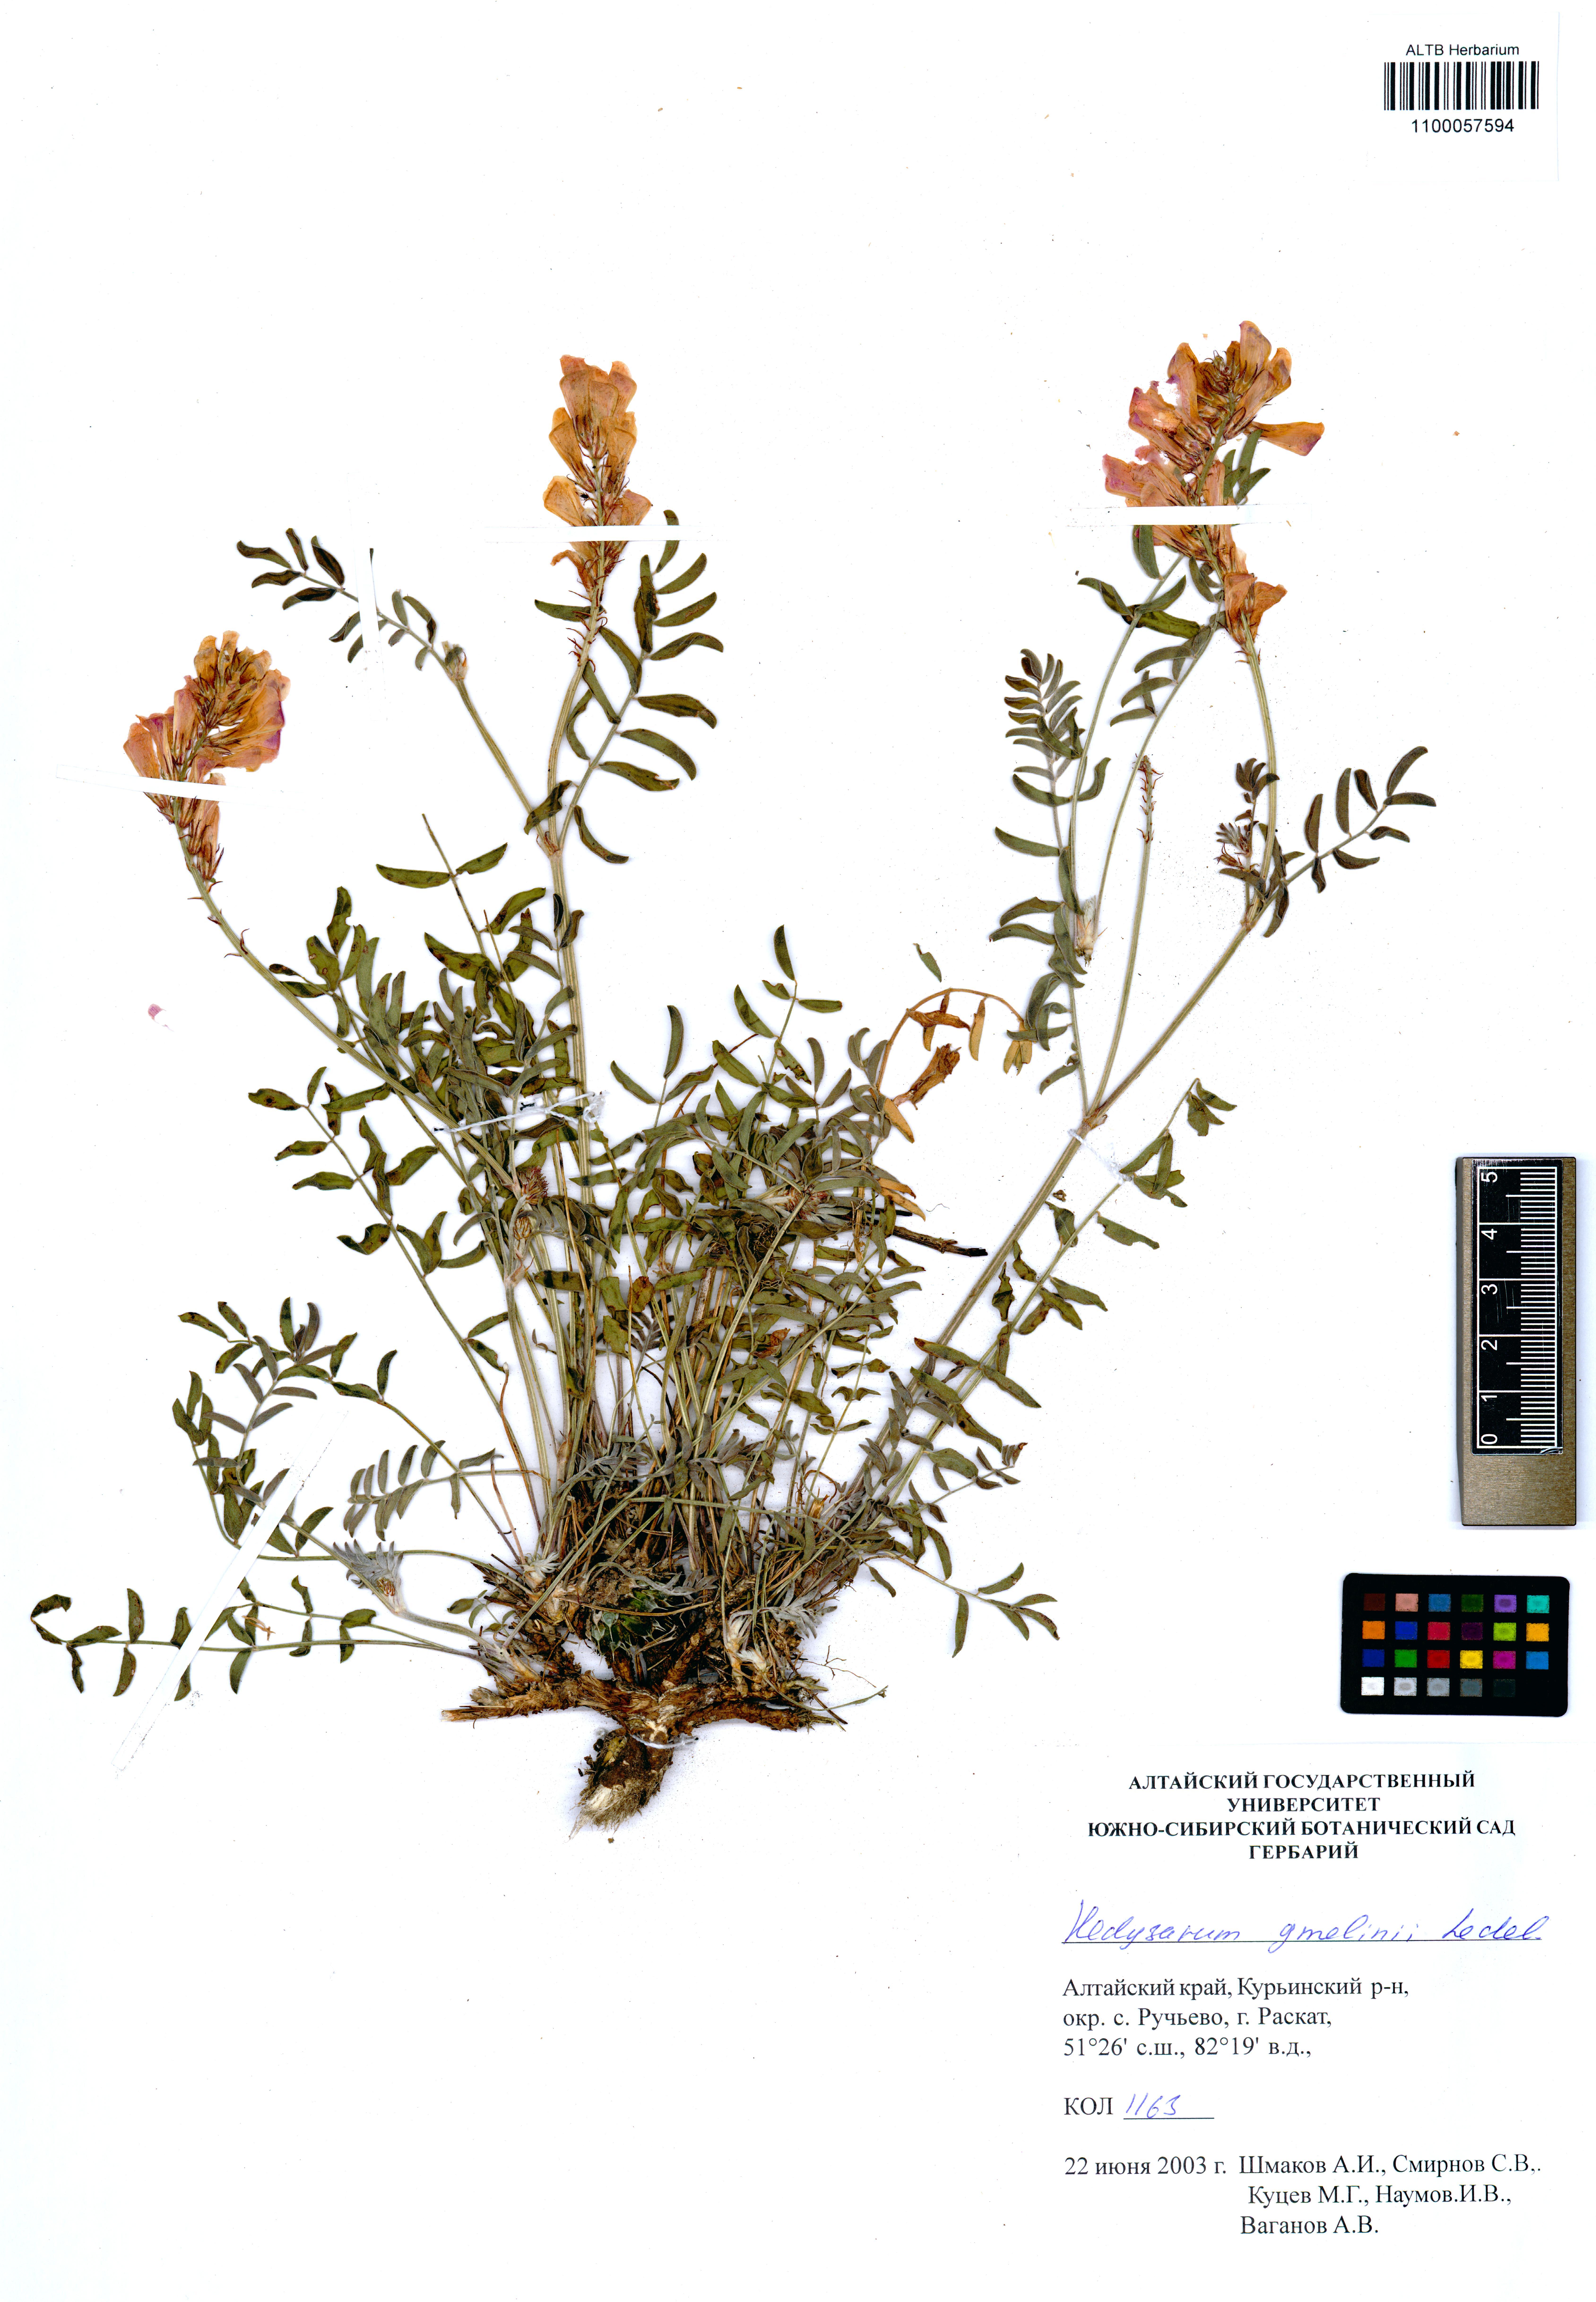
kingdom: Plantae
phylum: Tracheophyta
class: Magnoliopsida
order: Fabales
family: Fabaceae
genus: Hedysarum
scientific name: Hedysarum gmelinii
